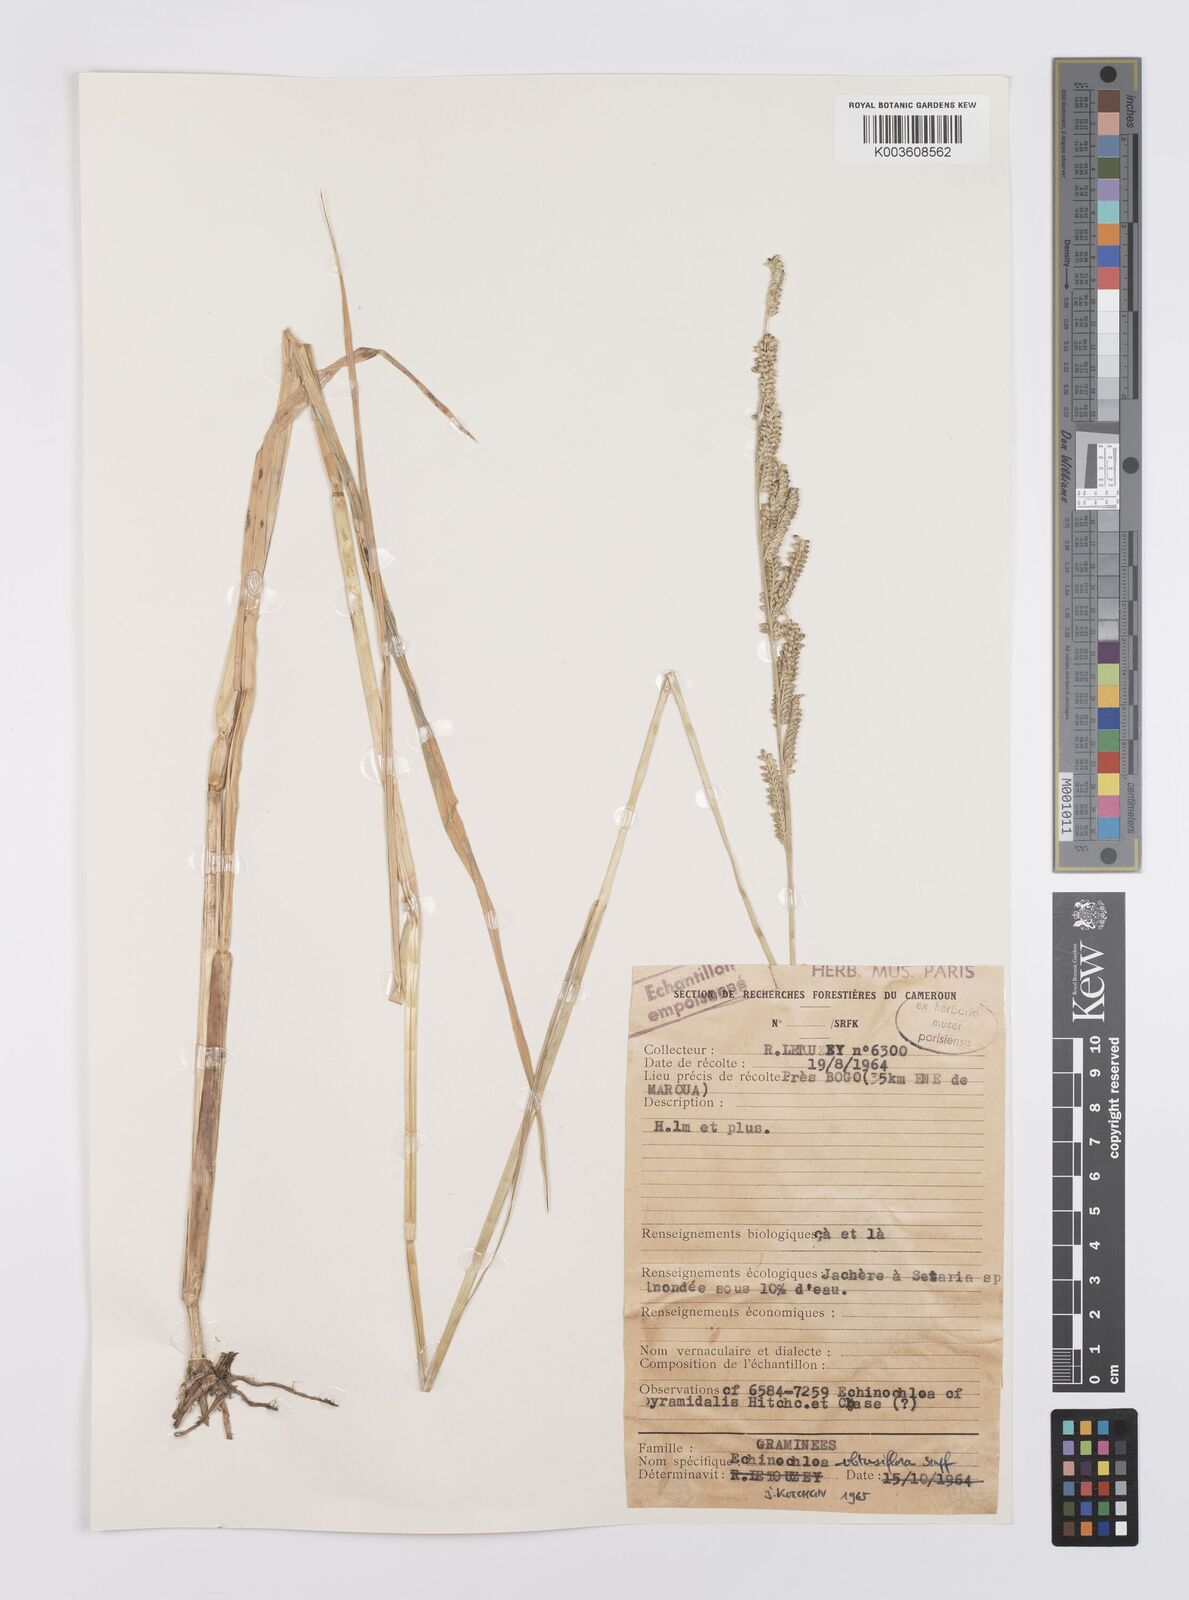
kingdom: Plantae
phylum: Tracheophyta
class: Liliopsida
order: Poales
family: Poaceae
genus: Echinochloa
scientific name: Echinochloa obtusiflora
